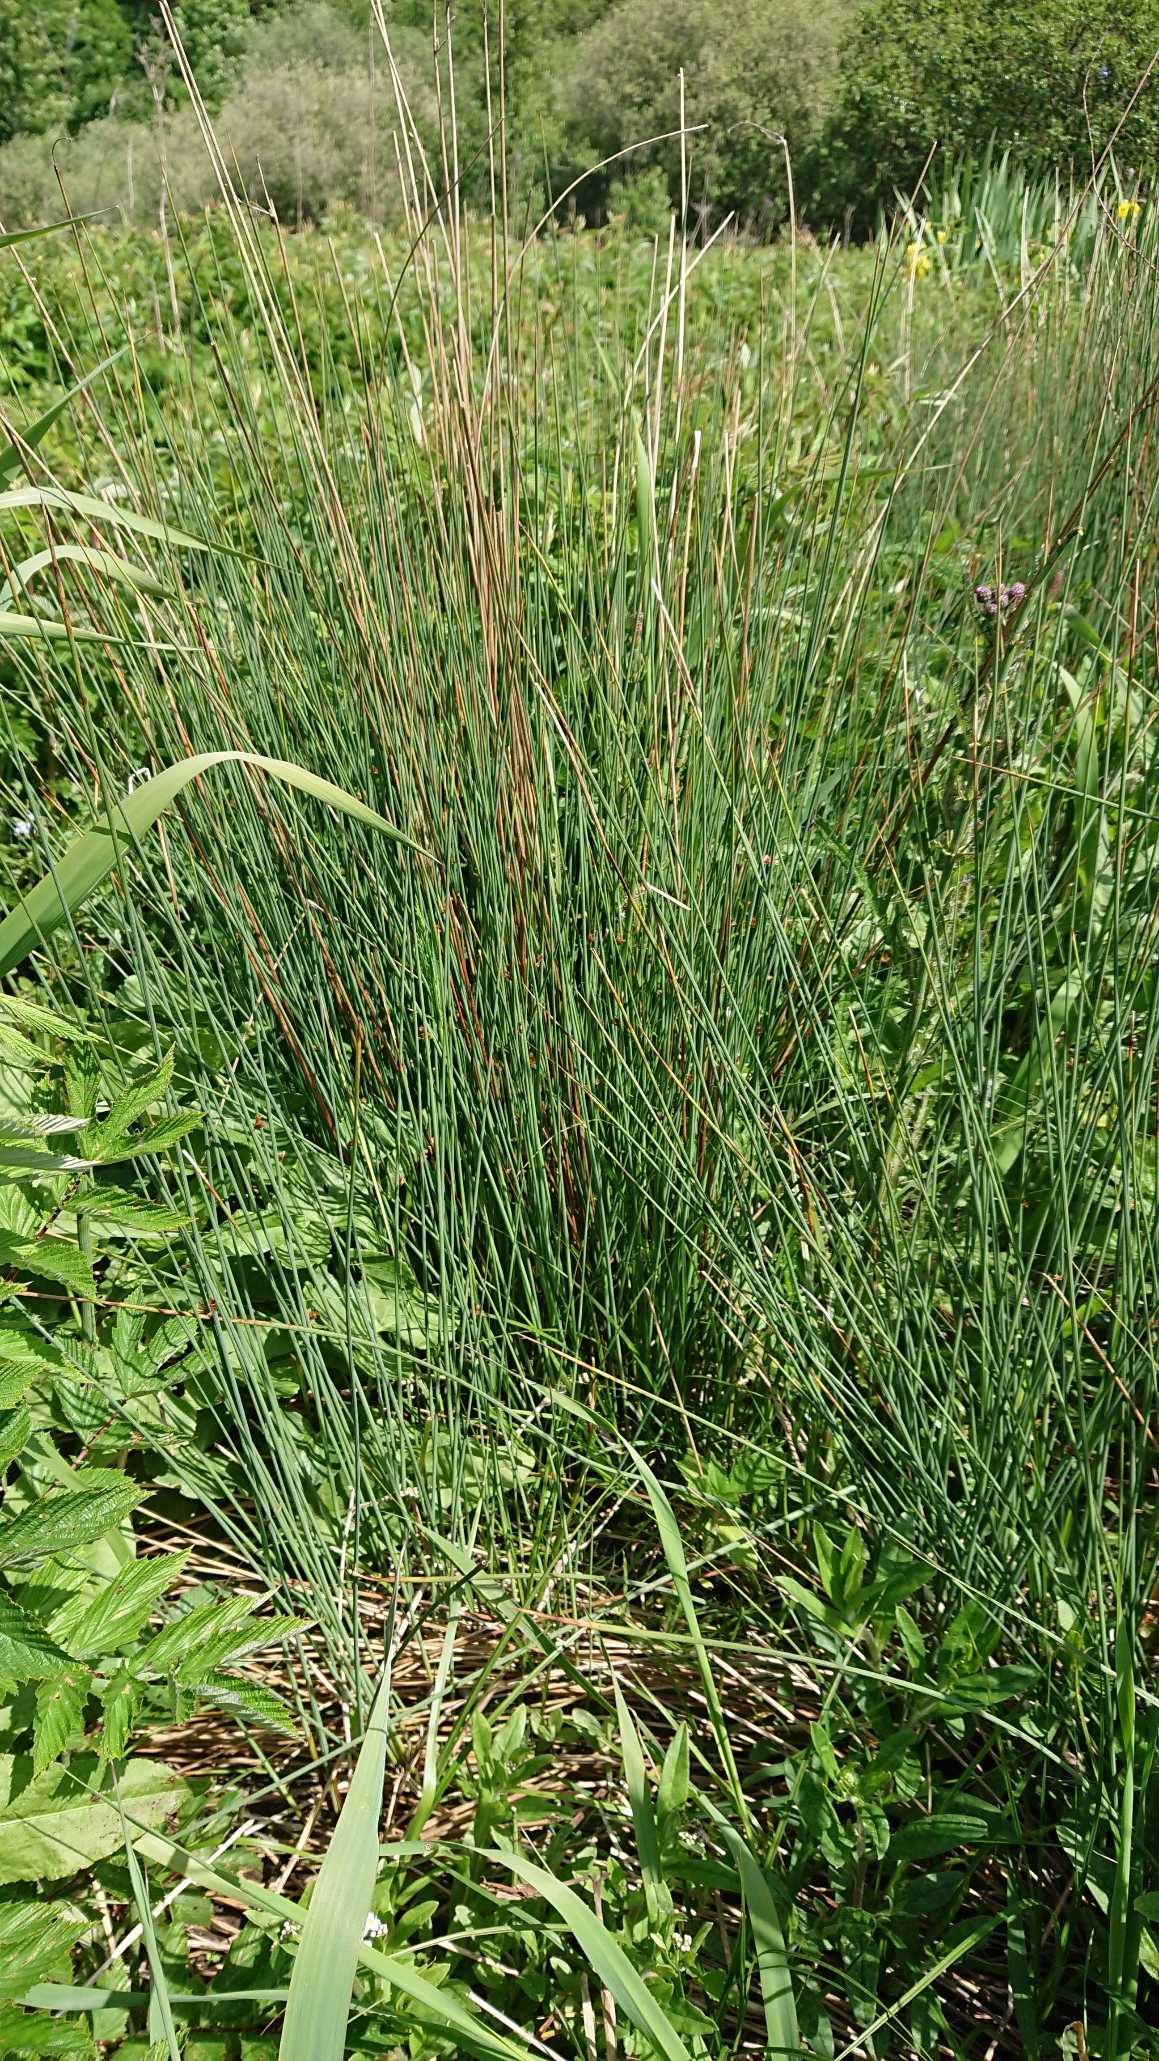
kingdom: Plantae
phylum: Tracheophyta
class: Liliopsida
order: Poales
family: Juncaceae
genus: Juncus
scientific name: Juncus inflexus
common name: Blågrå siv
